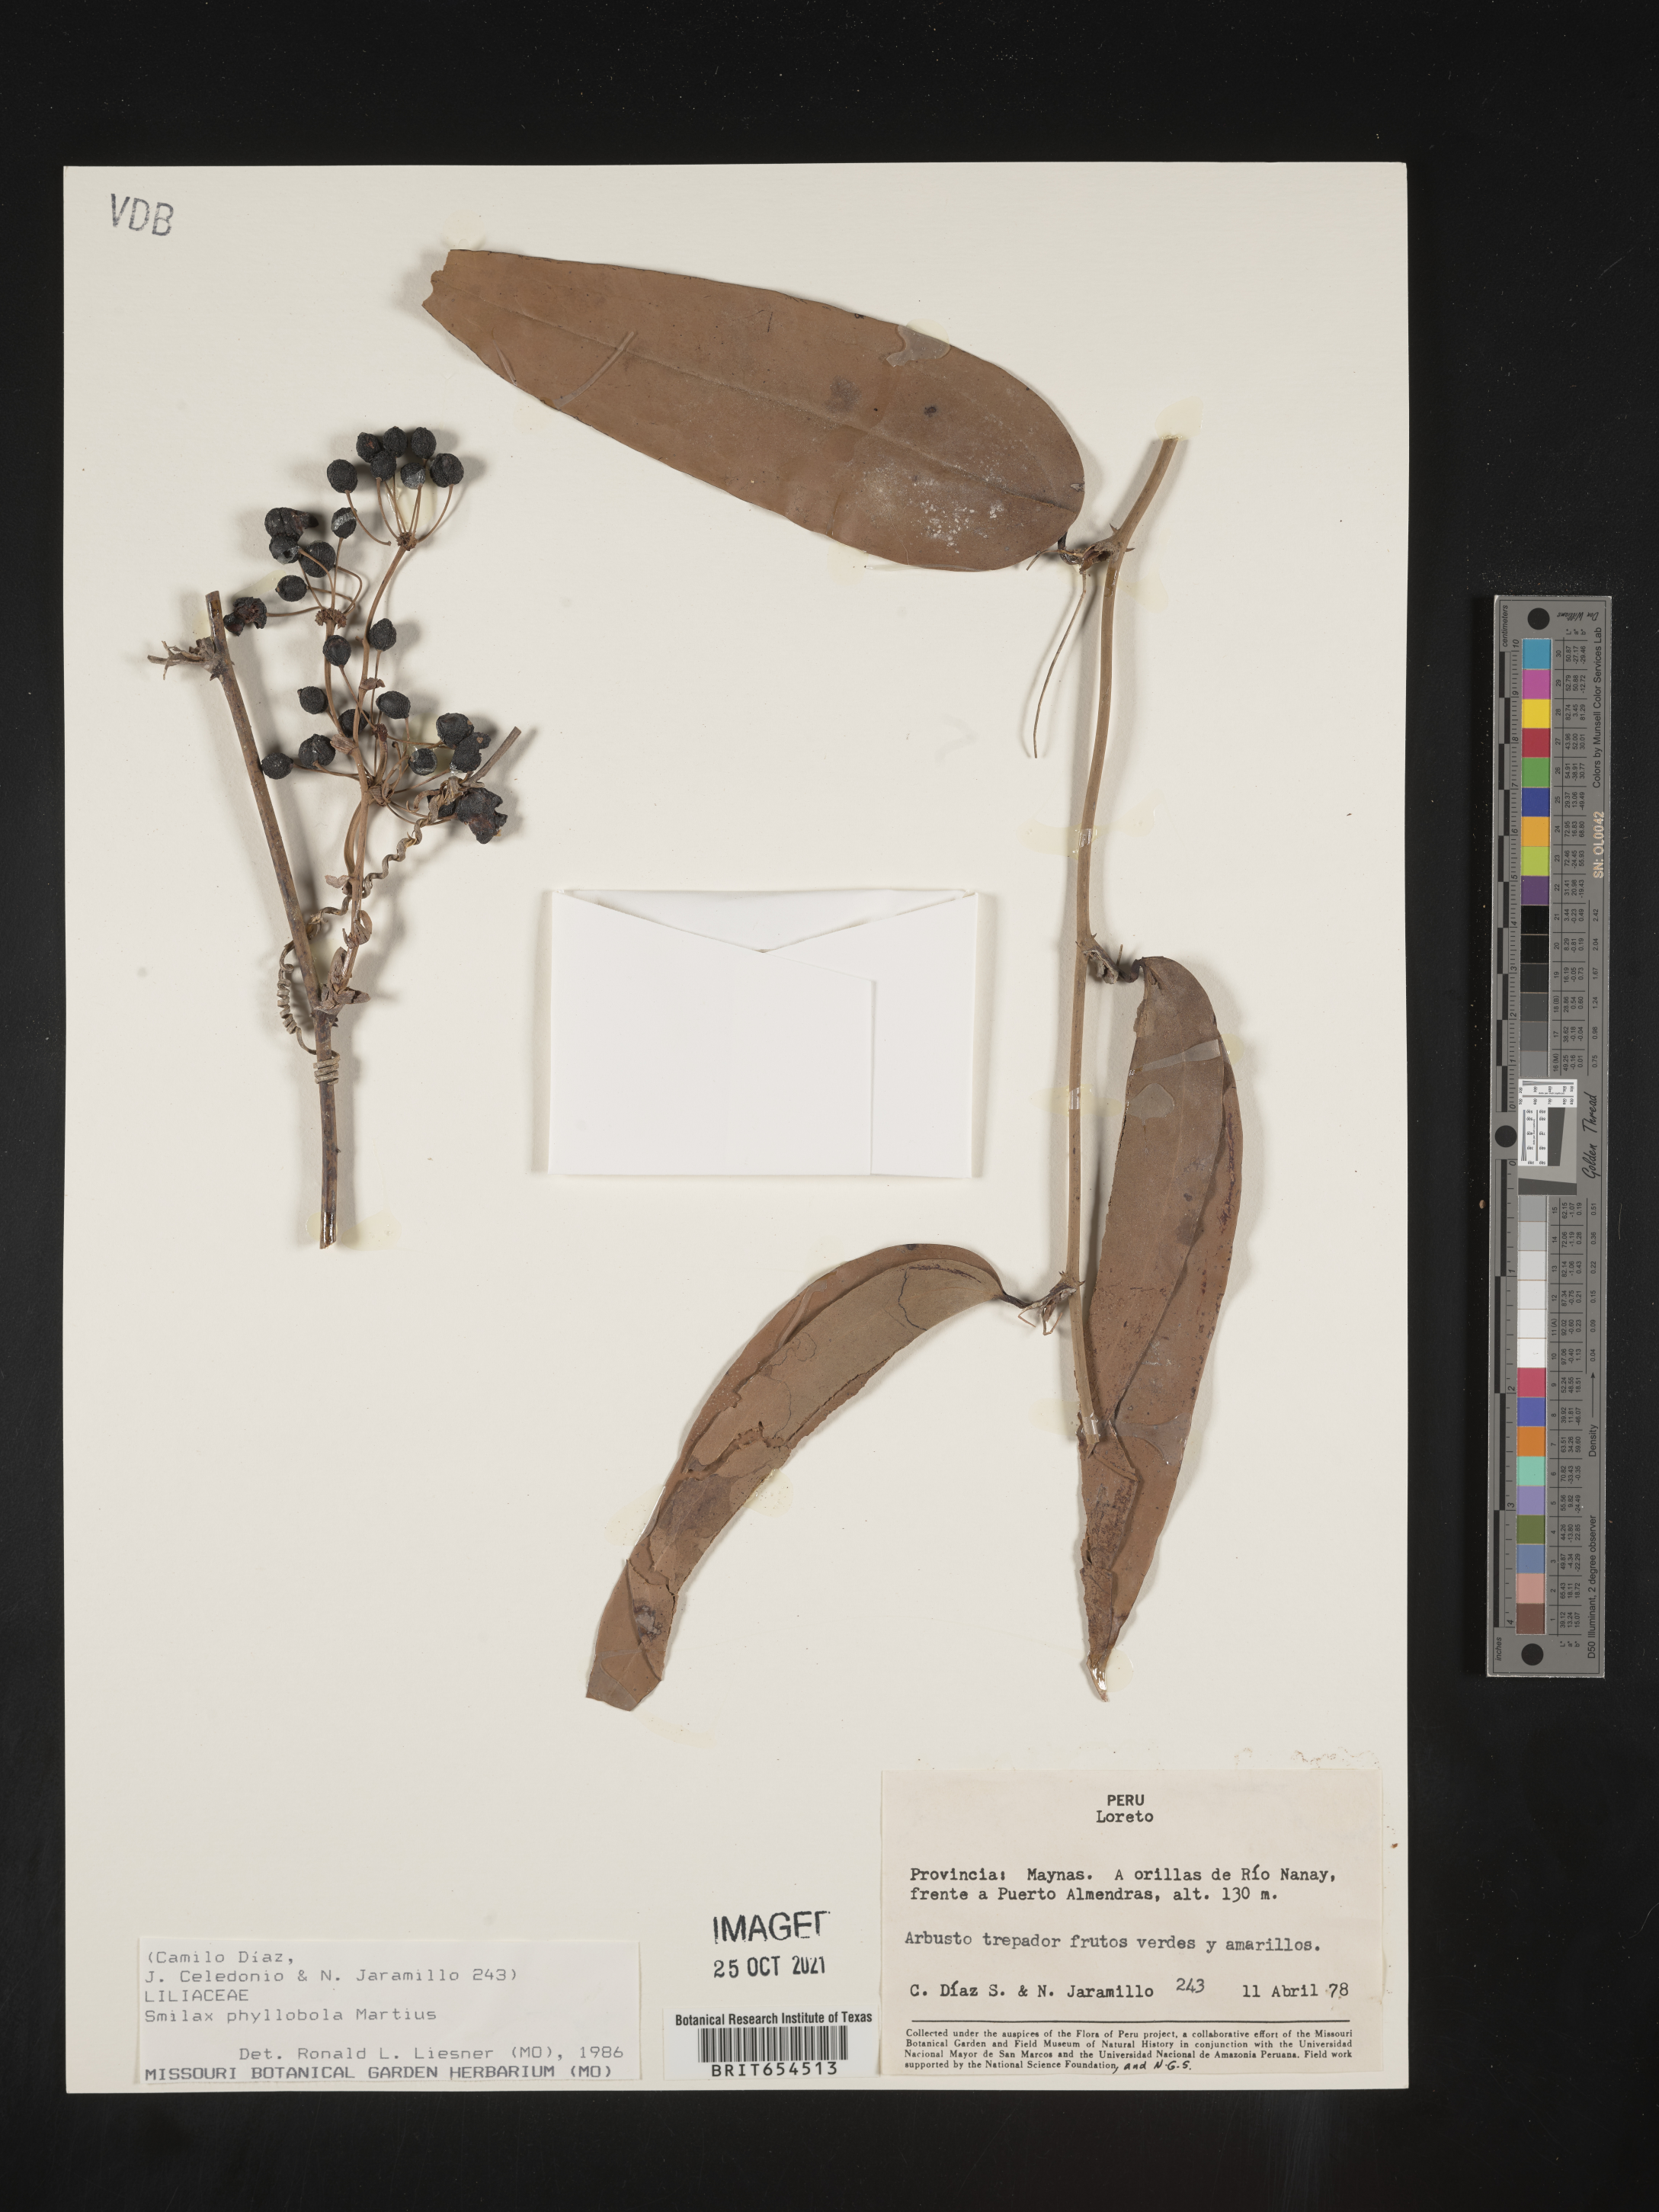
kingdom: Plantae
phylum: Tracheophyta
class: Liliopsida
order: Liliales
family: Smilacaceae
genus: Smilax
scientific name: Smilax
